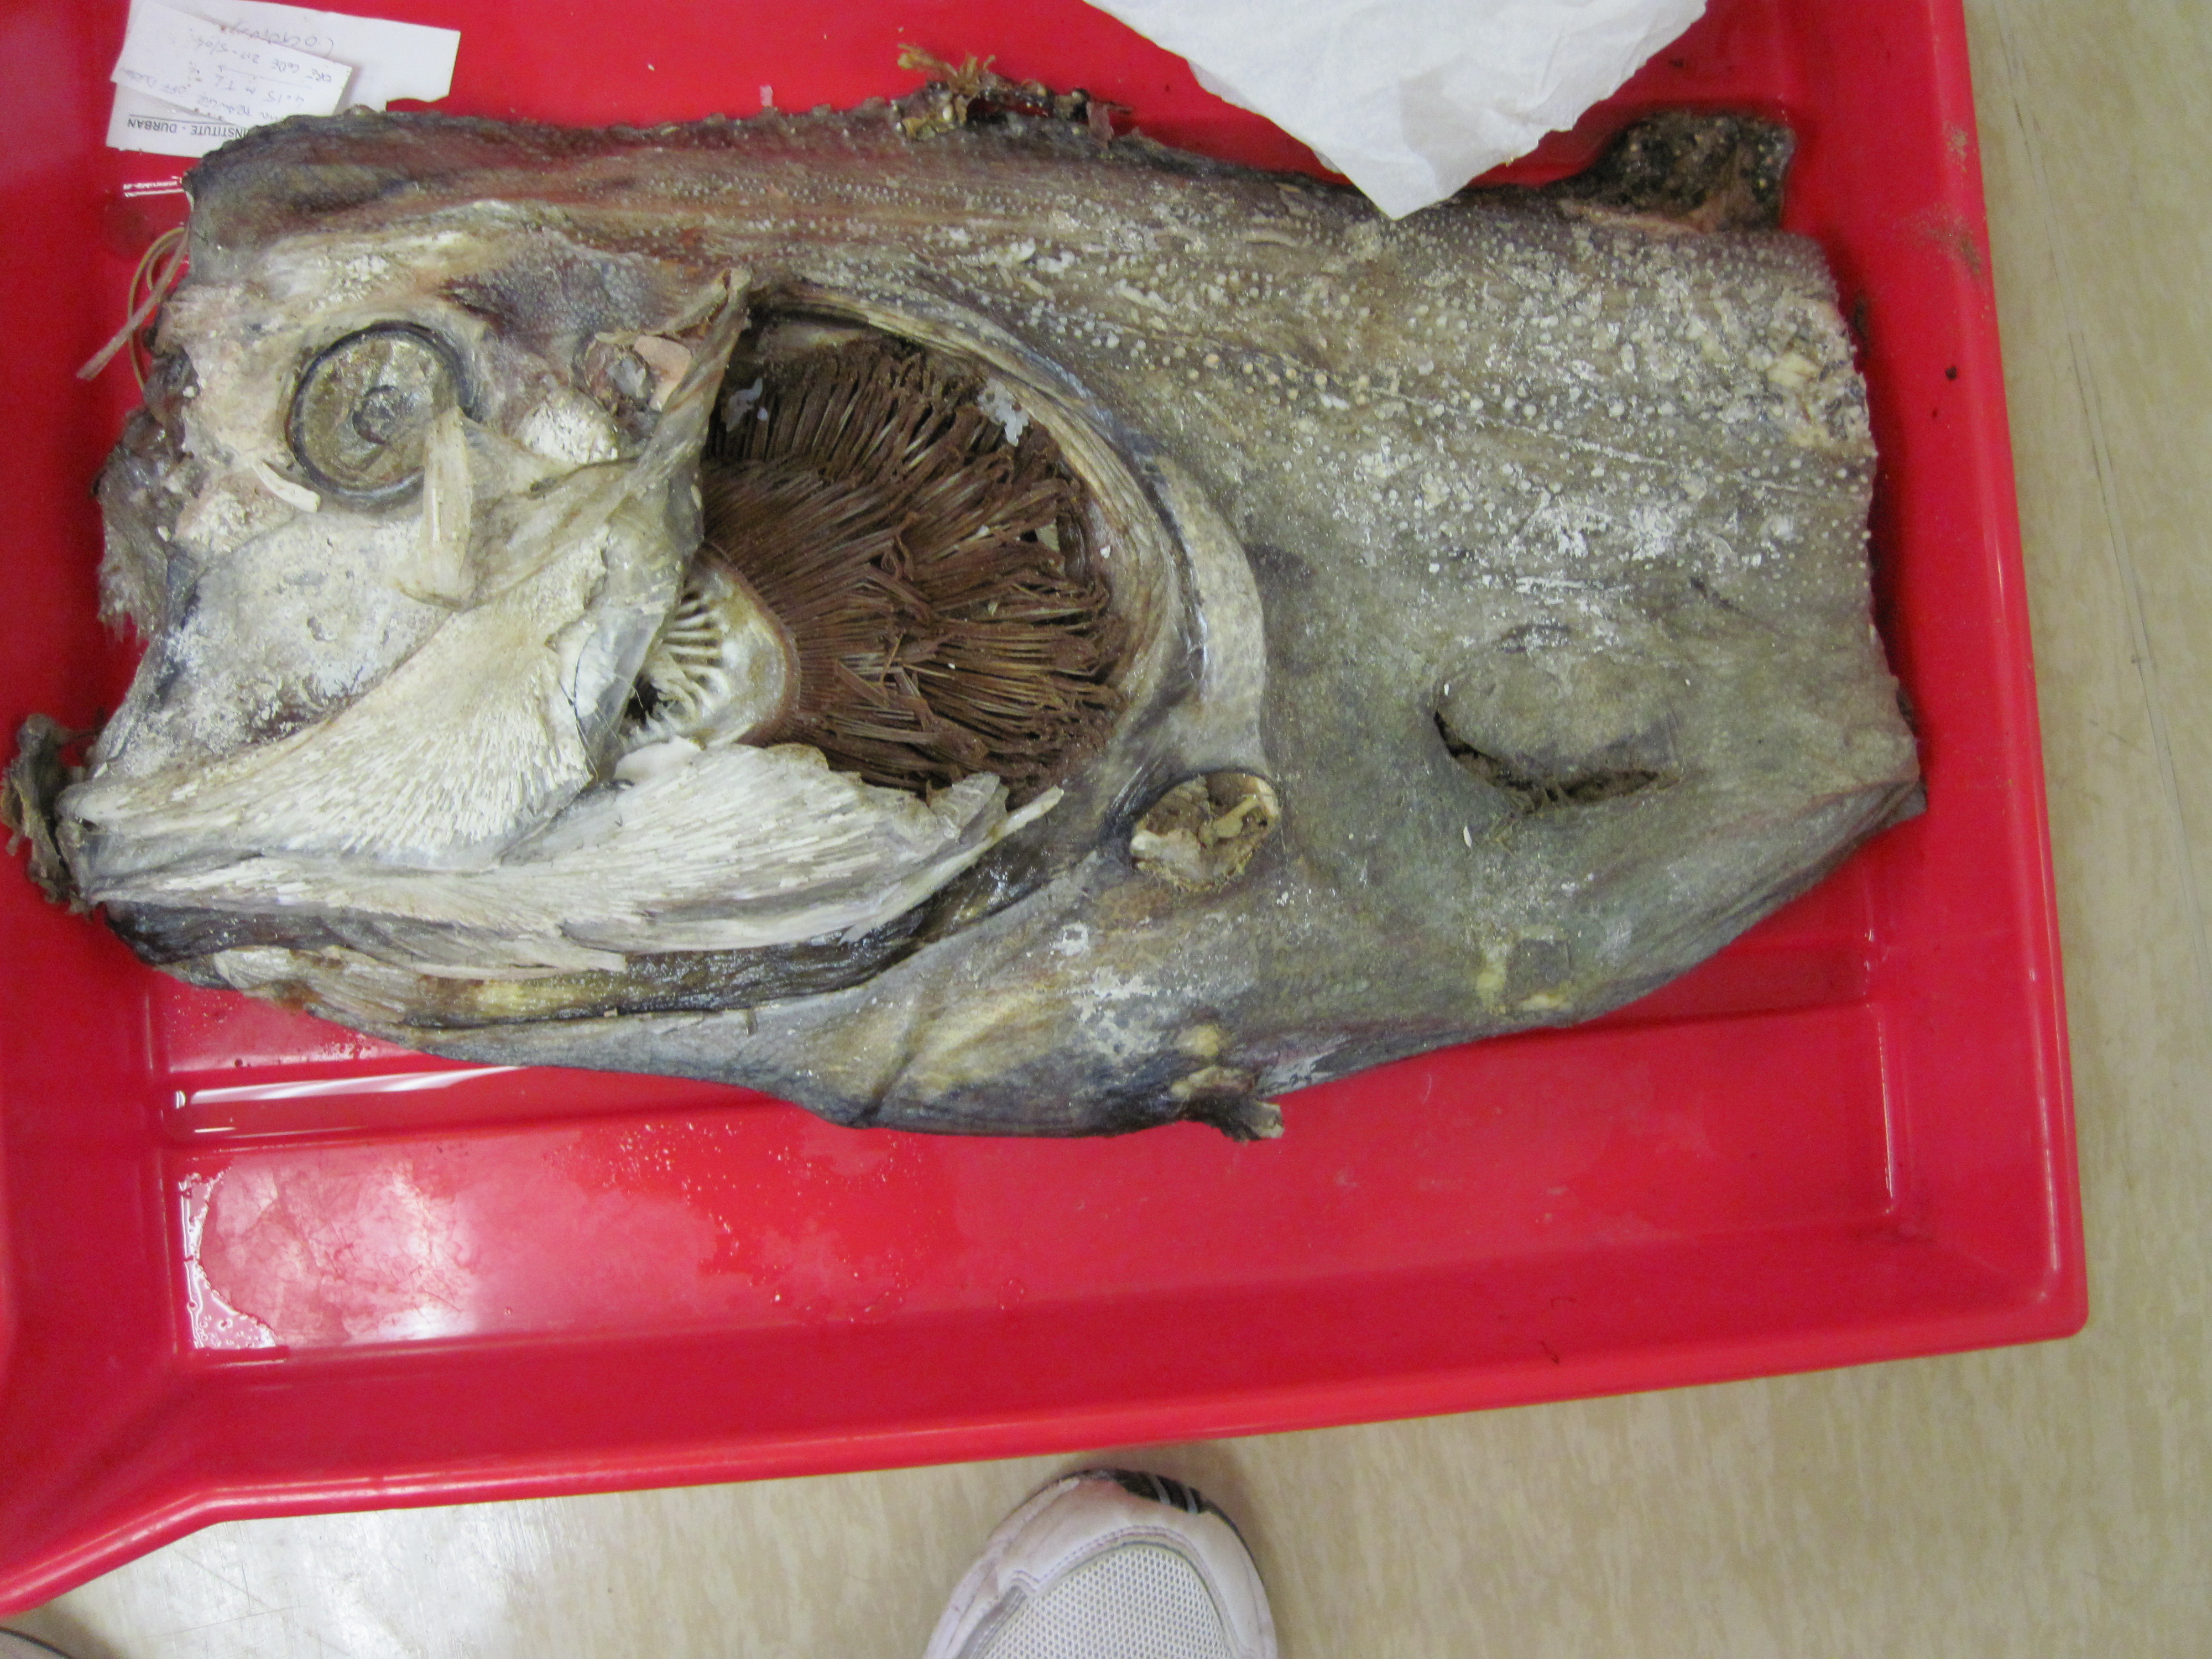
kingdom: Animalia
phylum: Chordata
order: Lampriformes
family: Regalecidae
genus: Regalecus
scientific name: Regalecus glesne
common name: Oarfish
